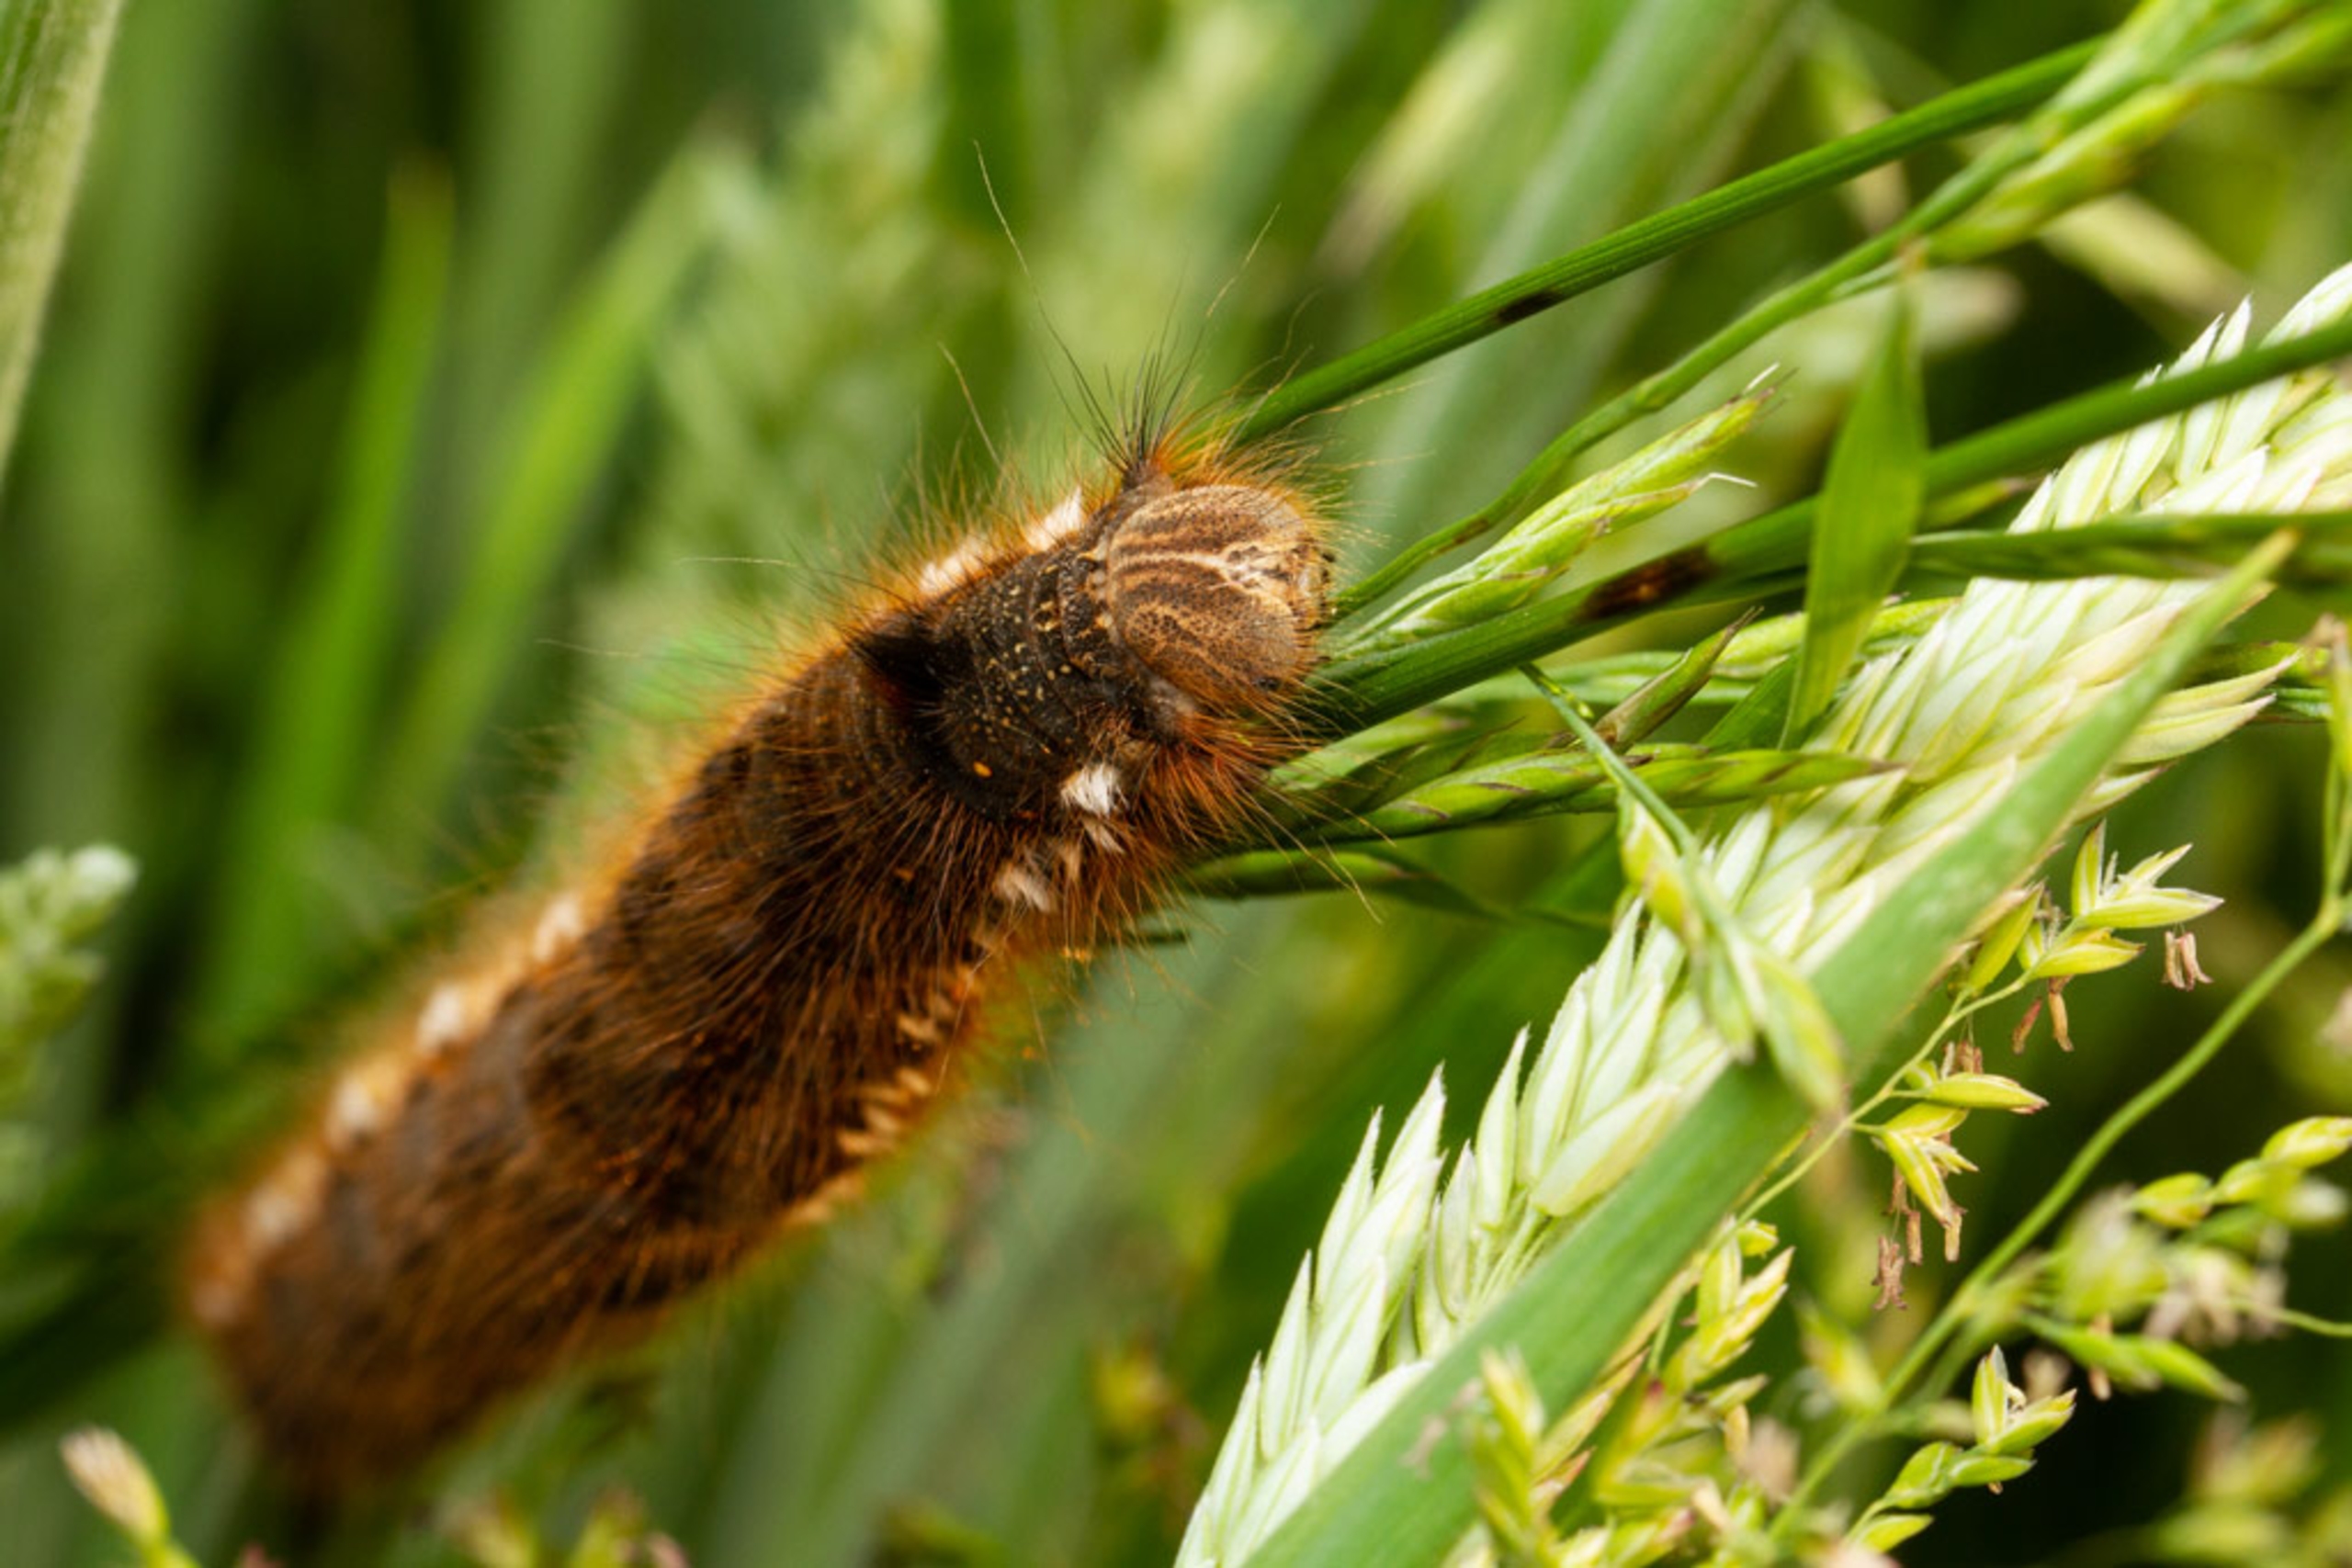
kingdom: Animalia
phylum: Arthropoda
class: Insecta
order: Lepidoptera
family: Lasiocampidae
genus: Euthrix
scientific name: Euthrix potatoria
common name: Græsspinder
